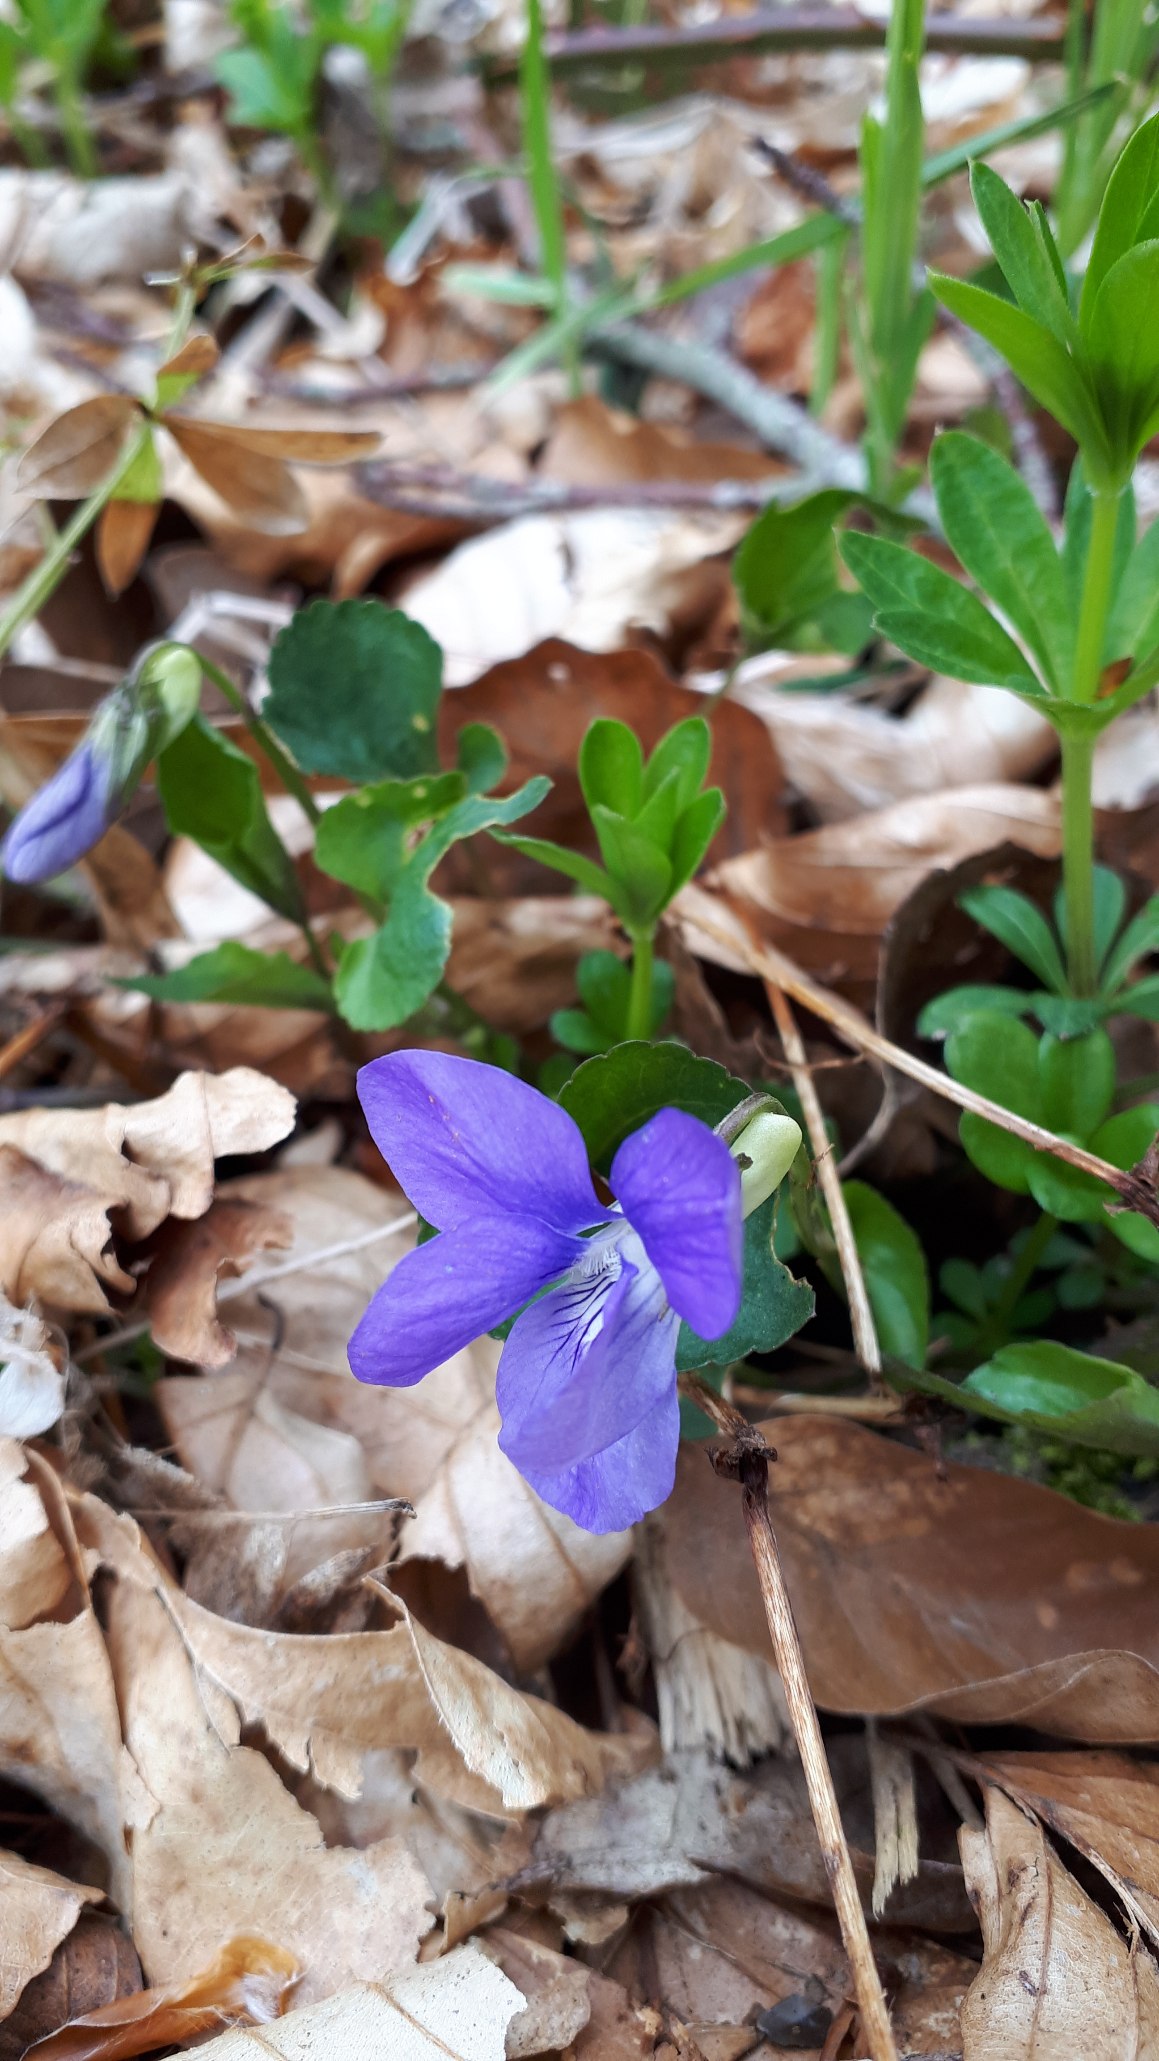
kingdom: Plantae
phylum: Tracheophyta
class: Magnoliopsida
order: Malpighiales
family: Violaceae
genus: Viola
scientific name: Viola riviniana
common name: Krat-viol
